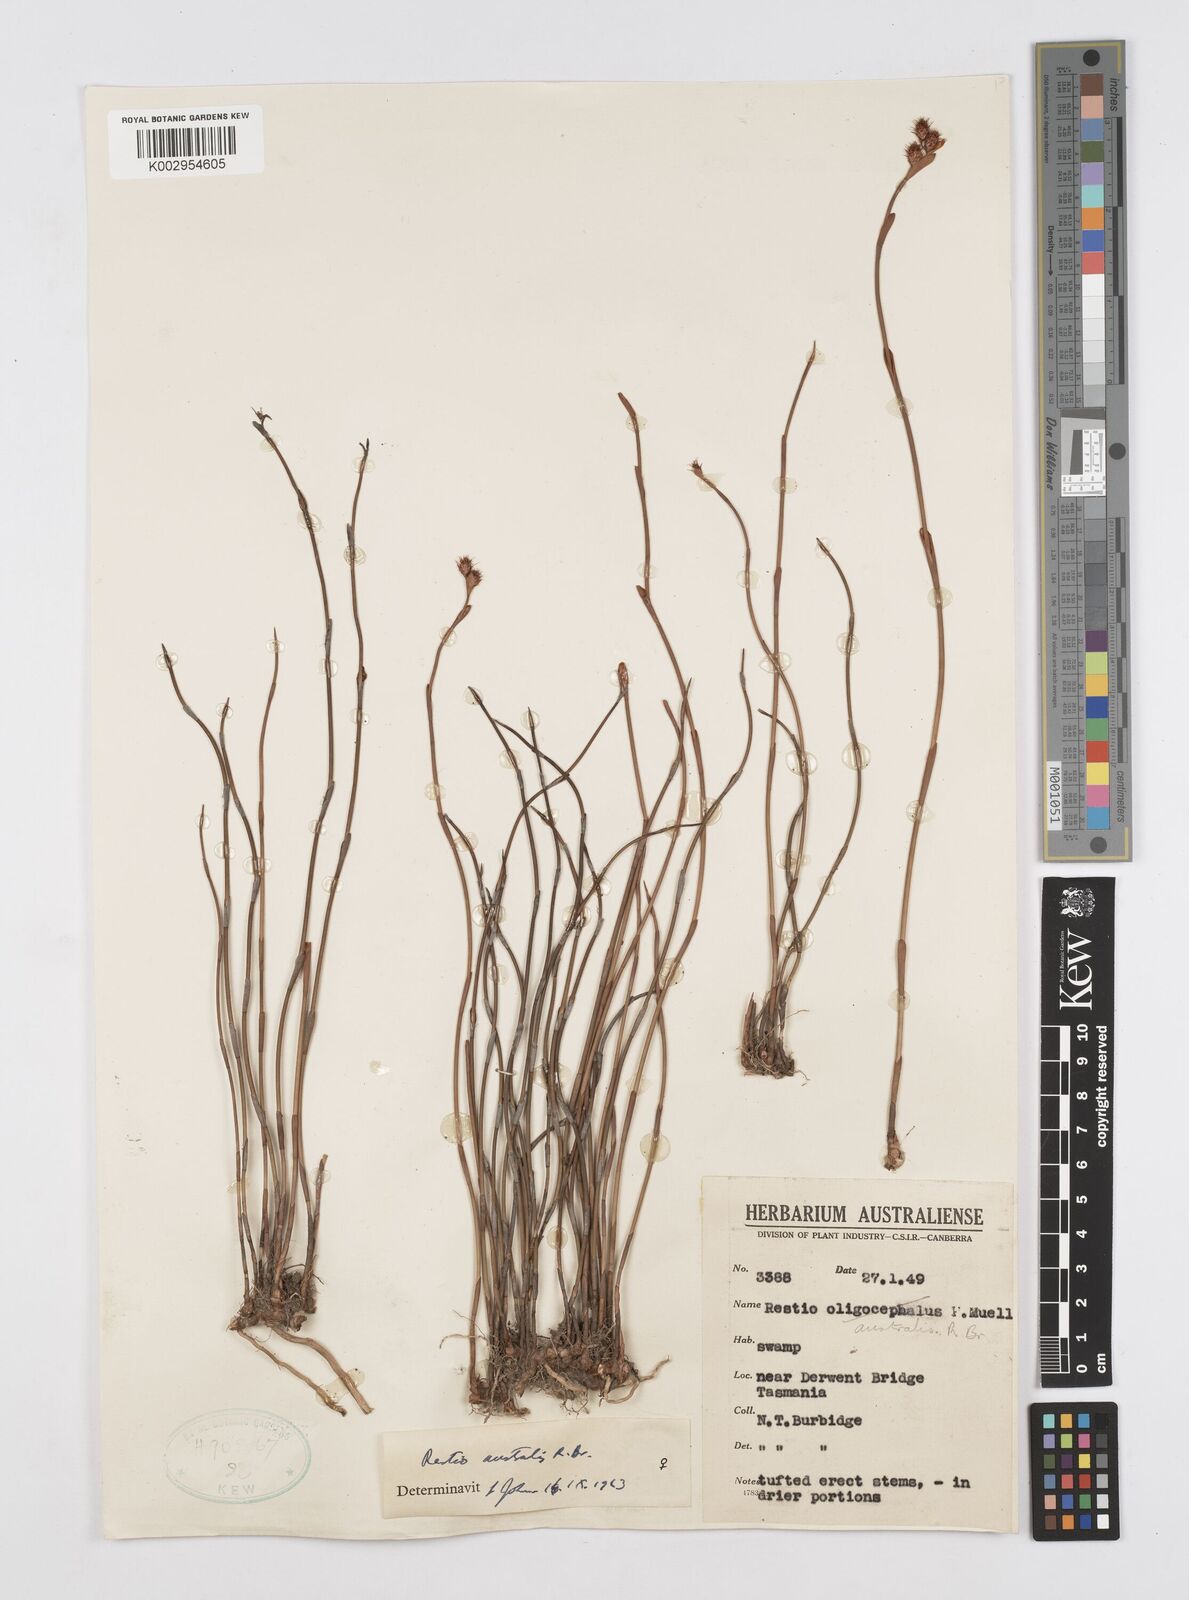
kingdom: Plantae
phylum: Tracheophyta
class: Liliopsida
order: Poales
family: Restionaceae
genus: Baloskion
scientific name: Baloskion australe
